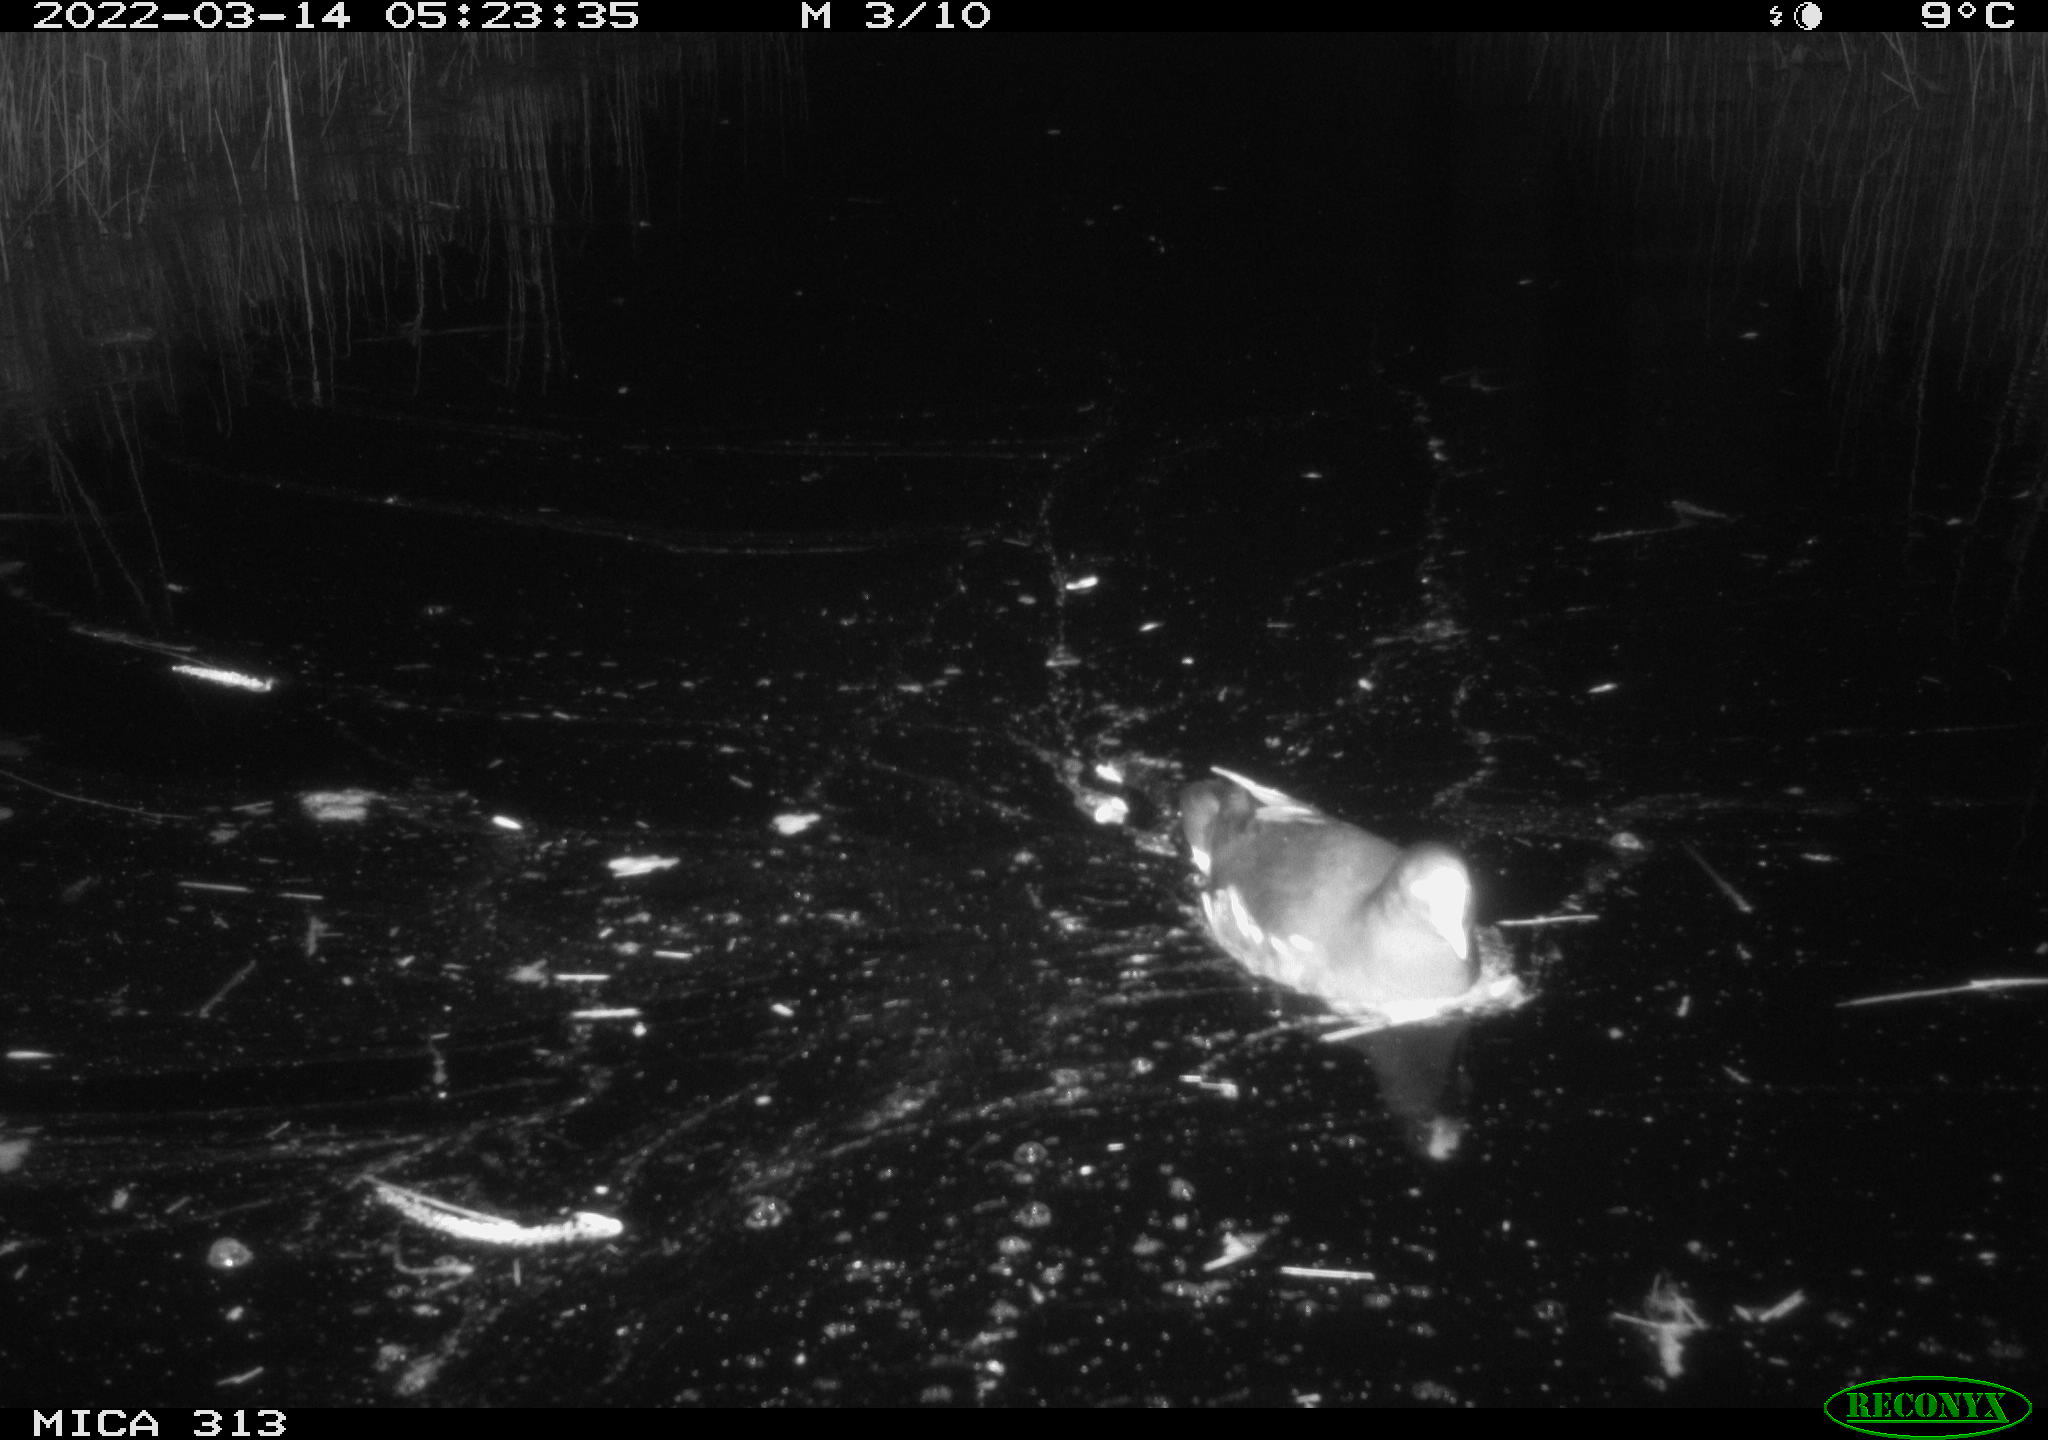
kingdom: Animalia
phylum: Chordata
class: Aves
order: Gruiformes
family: Rallidae
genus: Gallinula
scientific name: Gallinula chloropus
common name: Common moorhen
